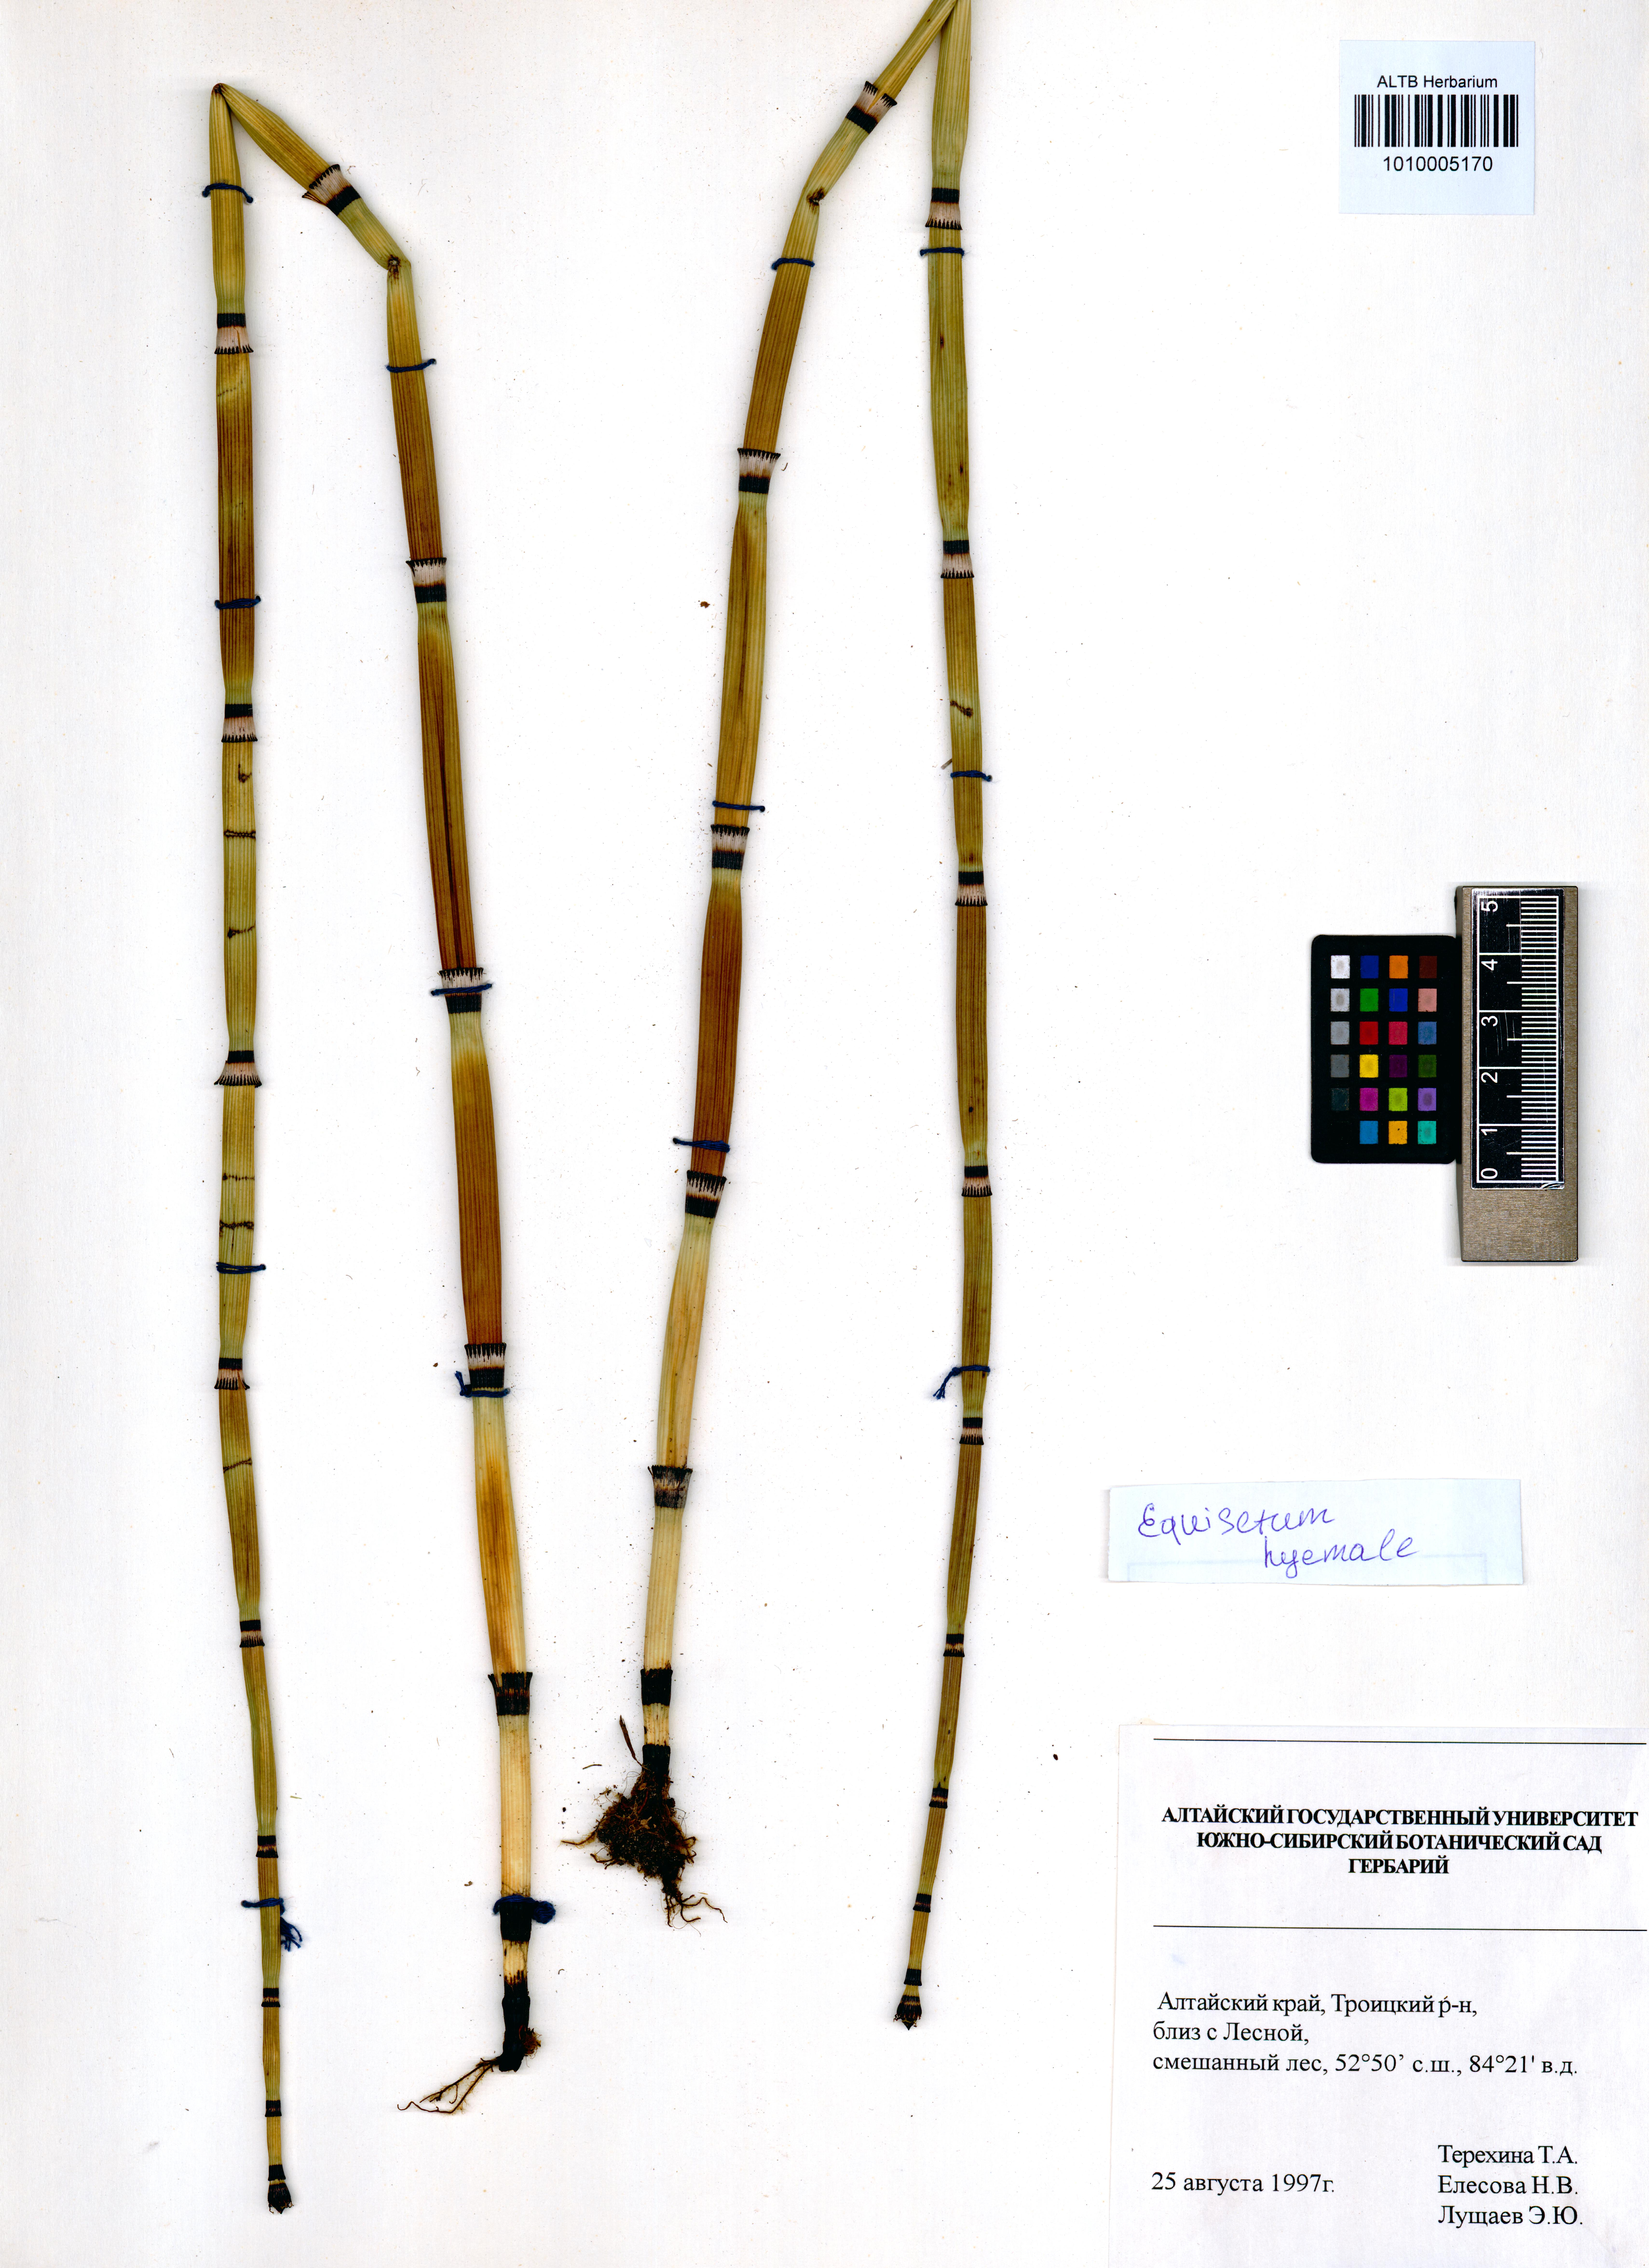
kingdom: Plantae
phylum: Tracheophyta
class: Polypodiopsida
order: Equisetales
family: Equisetaceae
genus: Equisetum
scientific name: Equisetum hyemale
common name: Rough horsetail
